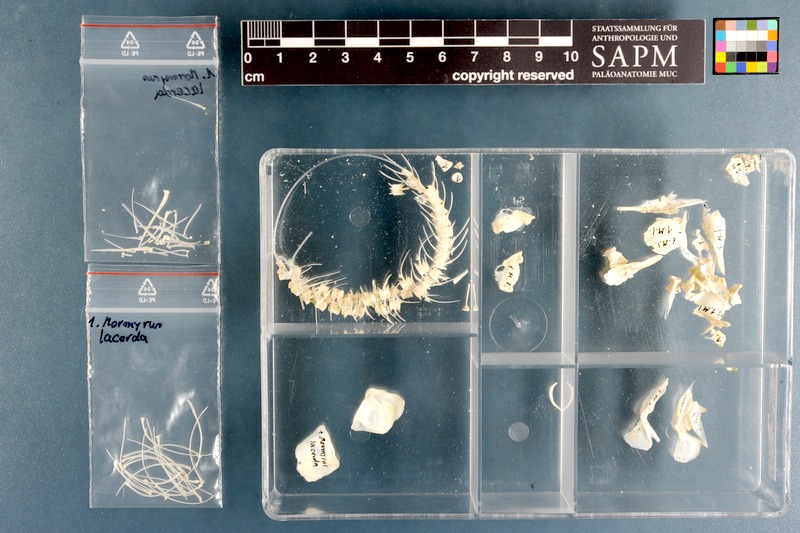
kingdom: Animalia
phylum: Chordata
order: Osteoglossiformes
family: Mormyridae
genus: Mormyrus
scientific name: Mormyrus lacerda
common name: Western bottlenose
